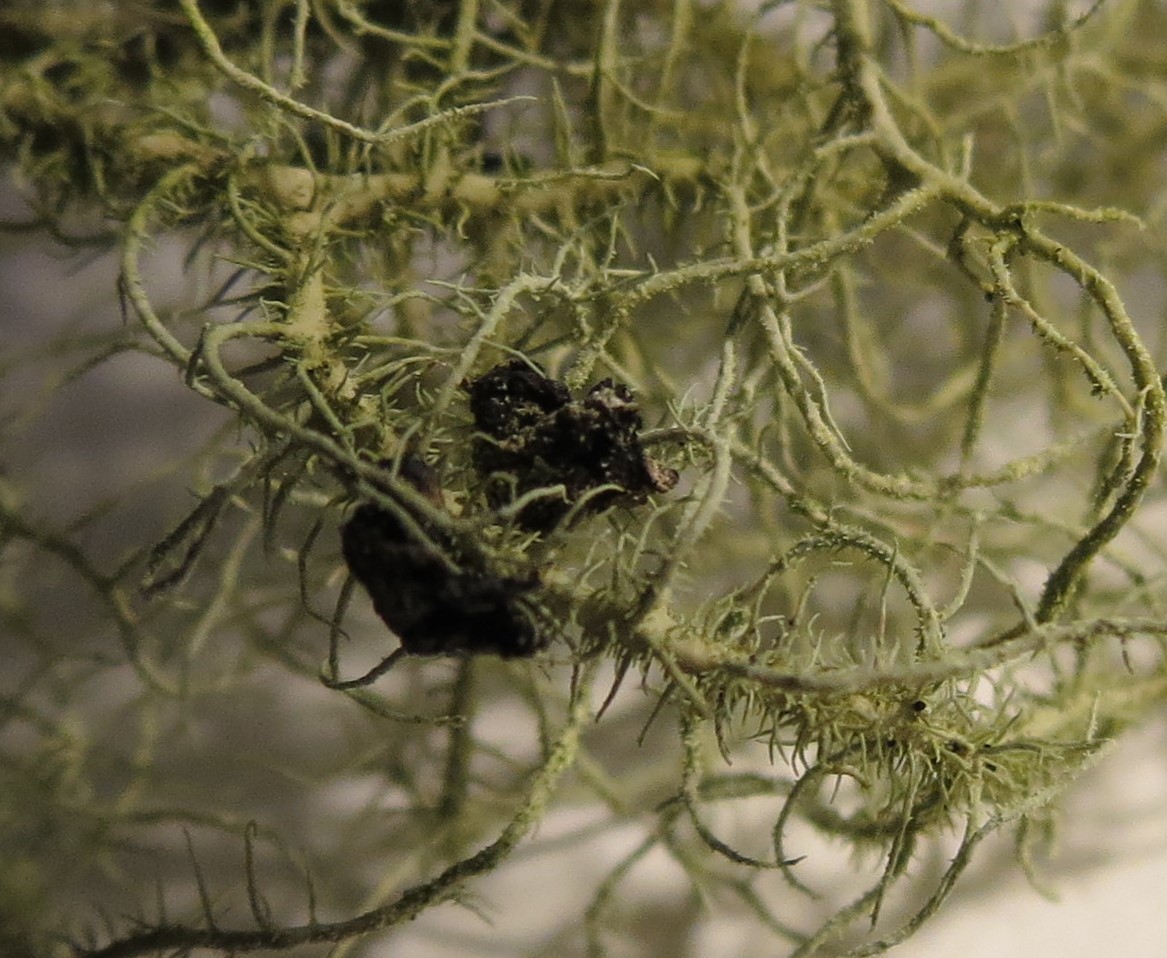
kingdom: Fungi
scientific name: Fungi
